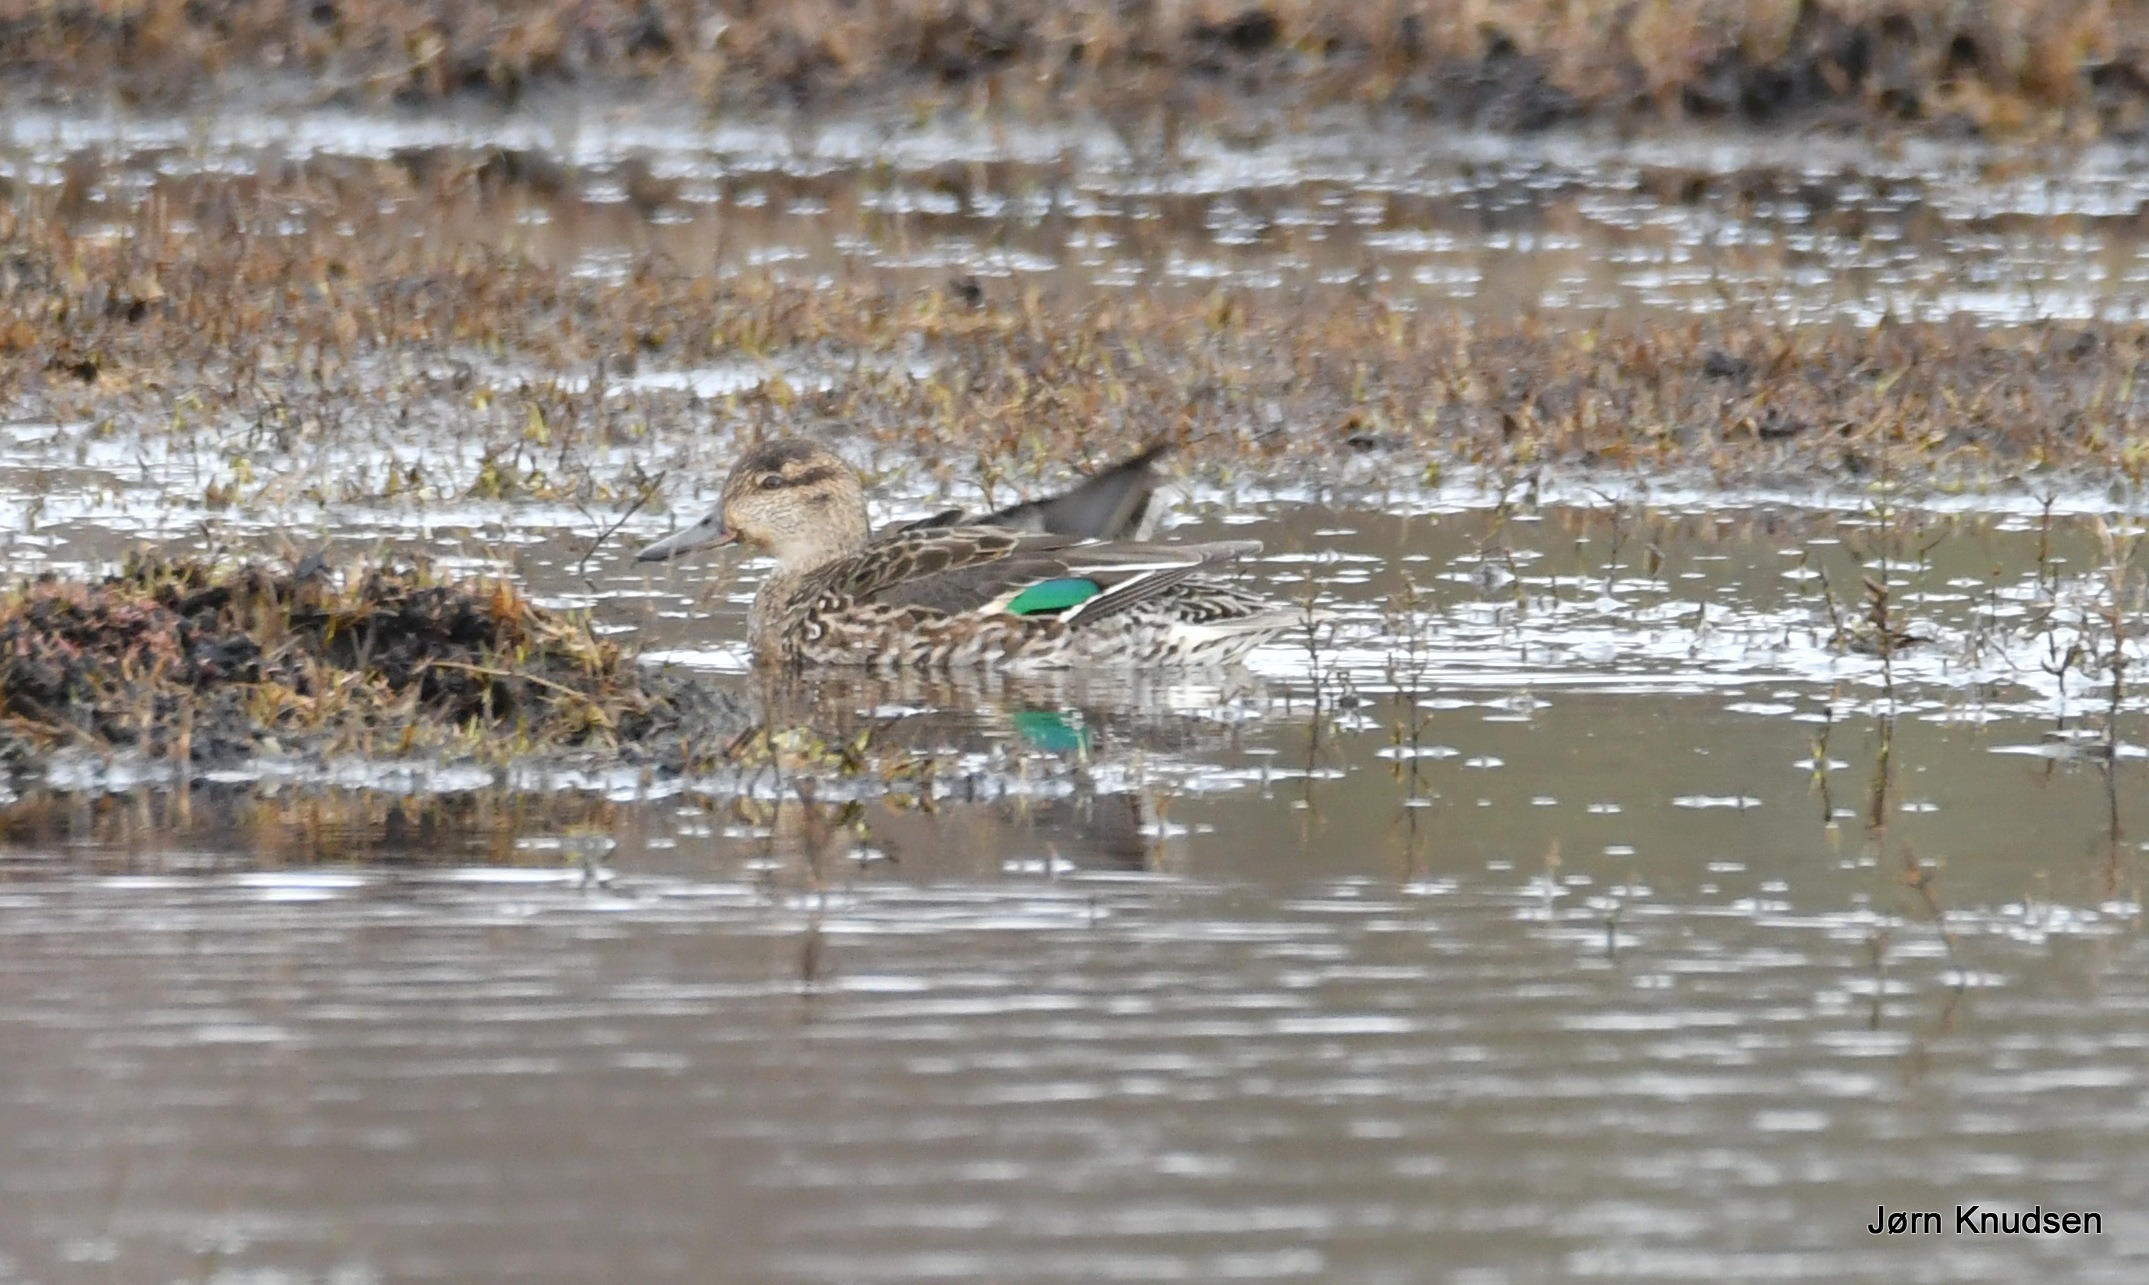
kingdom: Animalia
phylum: Chordata
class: Aves
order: Anseriformes
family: Anatidae
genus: Anas
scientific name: Anas crecca
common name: Krikand
